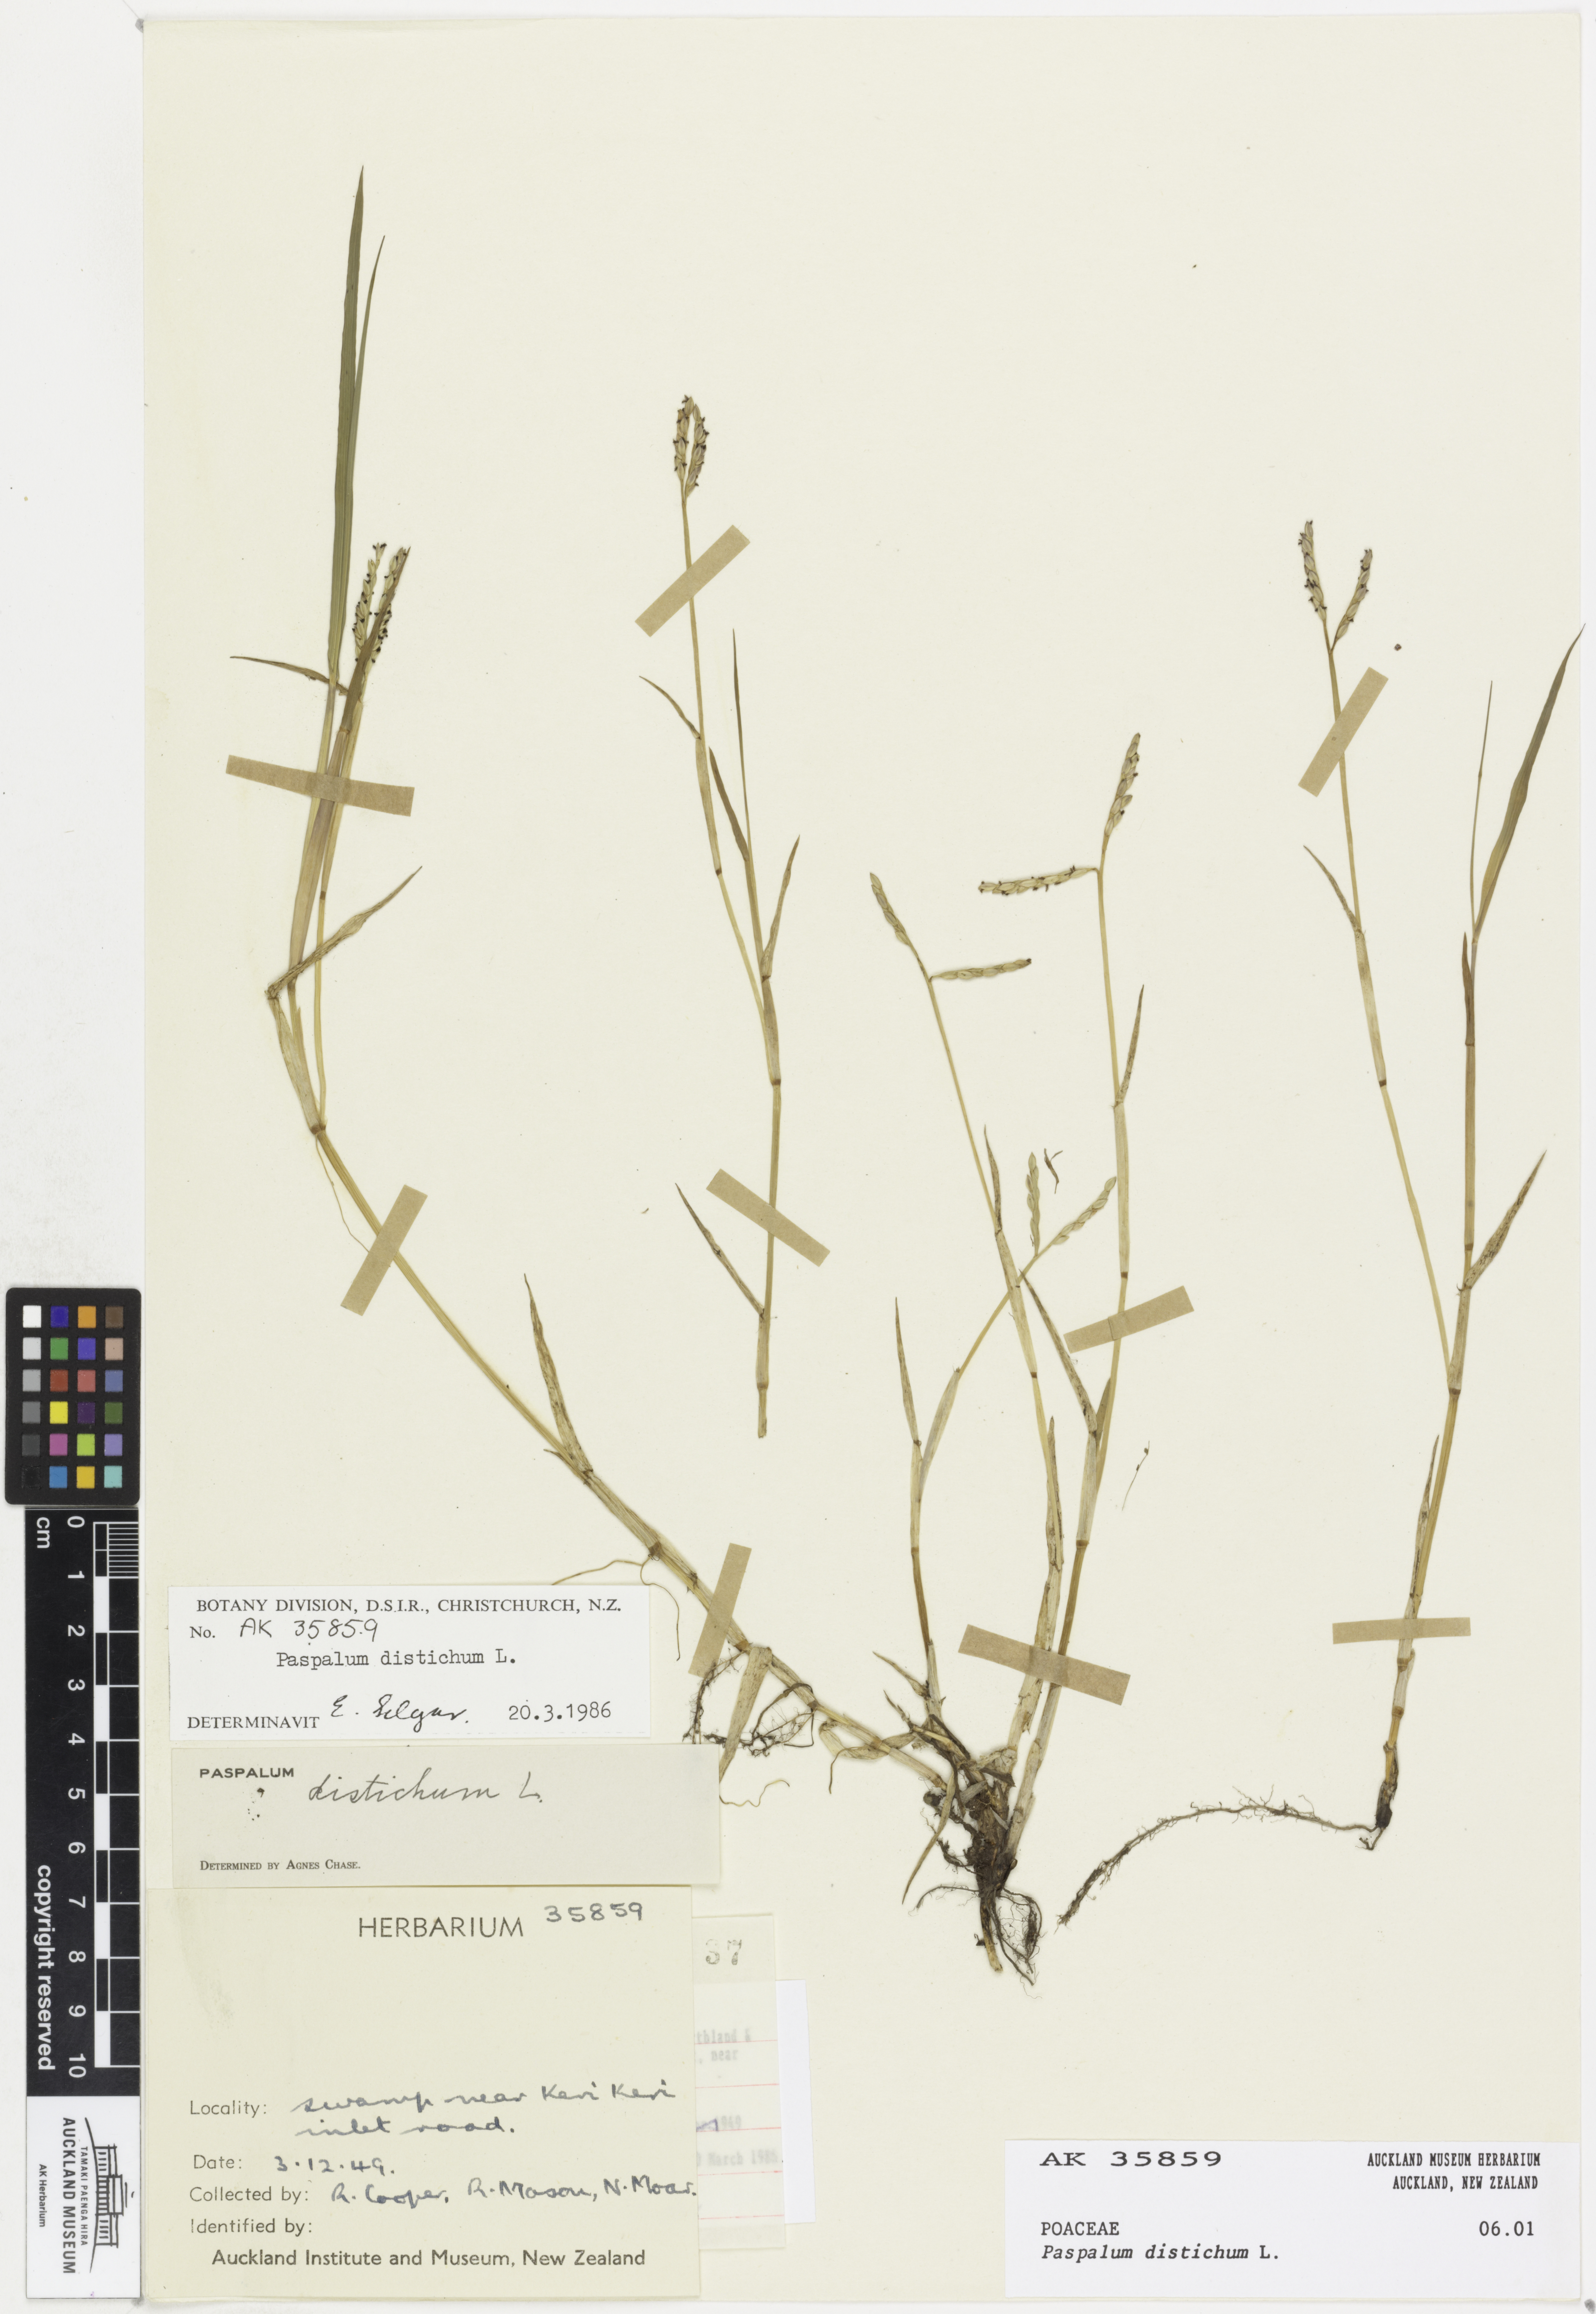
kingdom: Plantae
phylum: Tracheophyta
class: Liliopsida
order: Poales
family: Poaceae
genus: Paspalum
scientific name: Paspalum distichum
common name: Knotgrass
